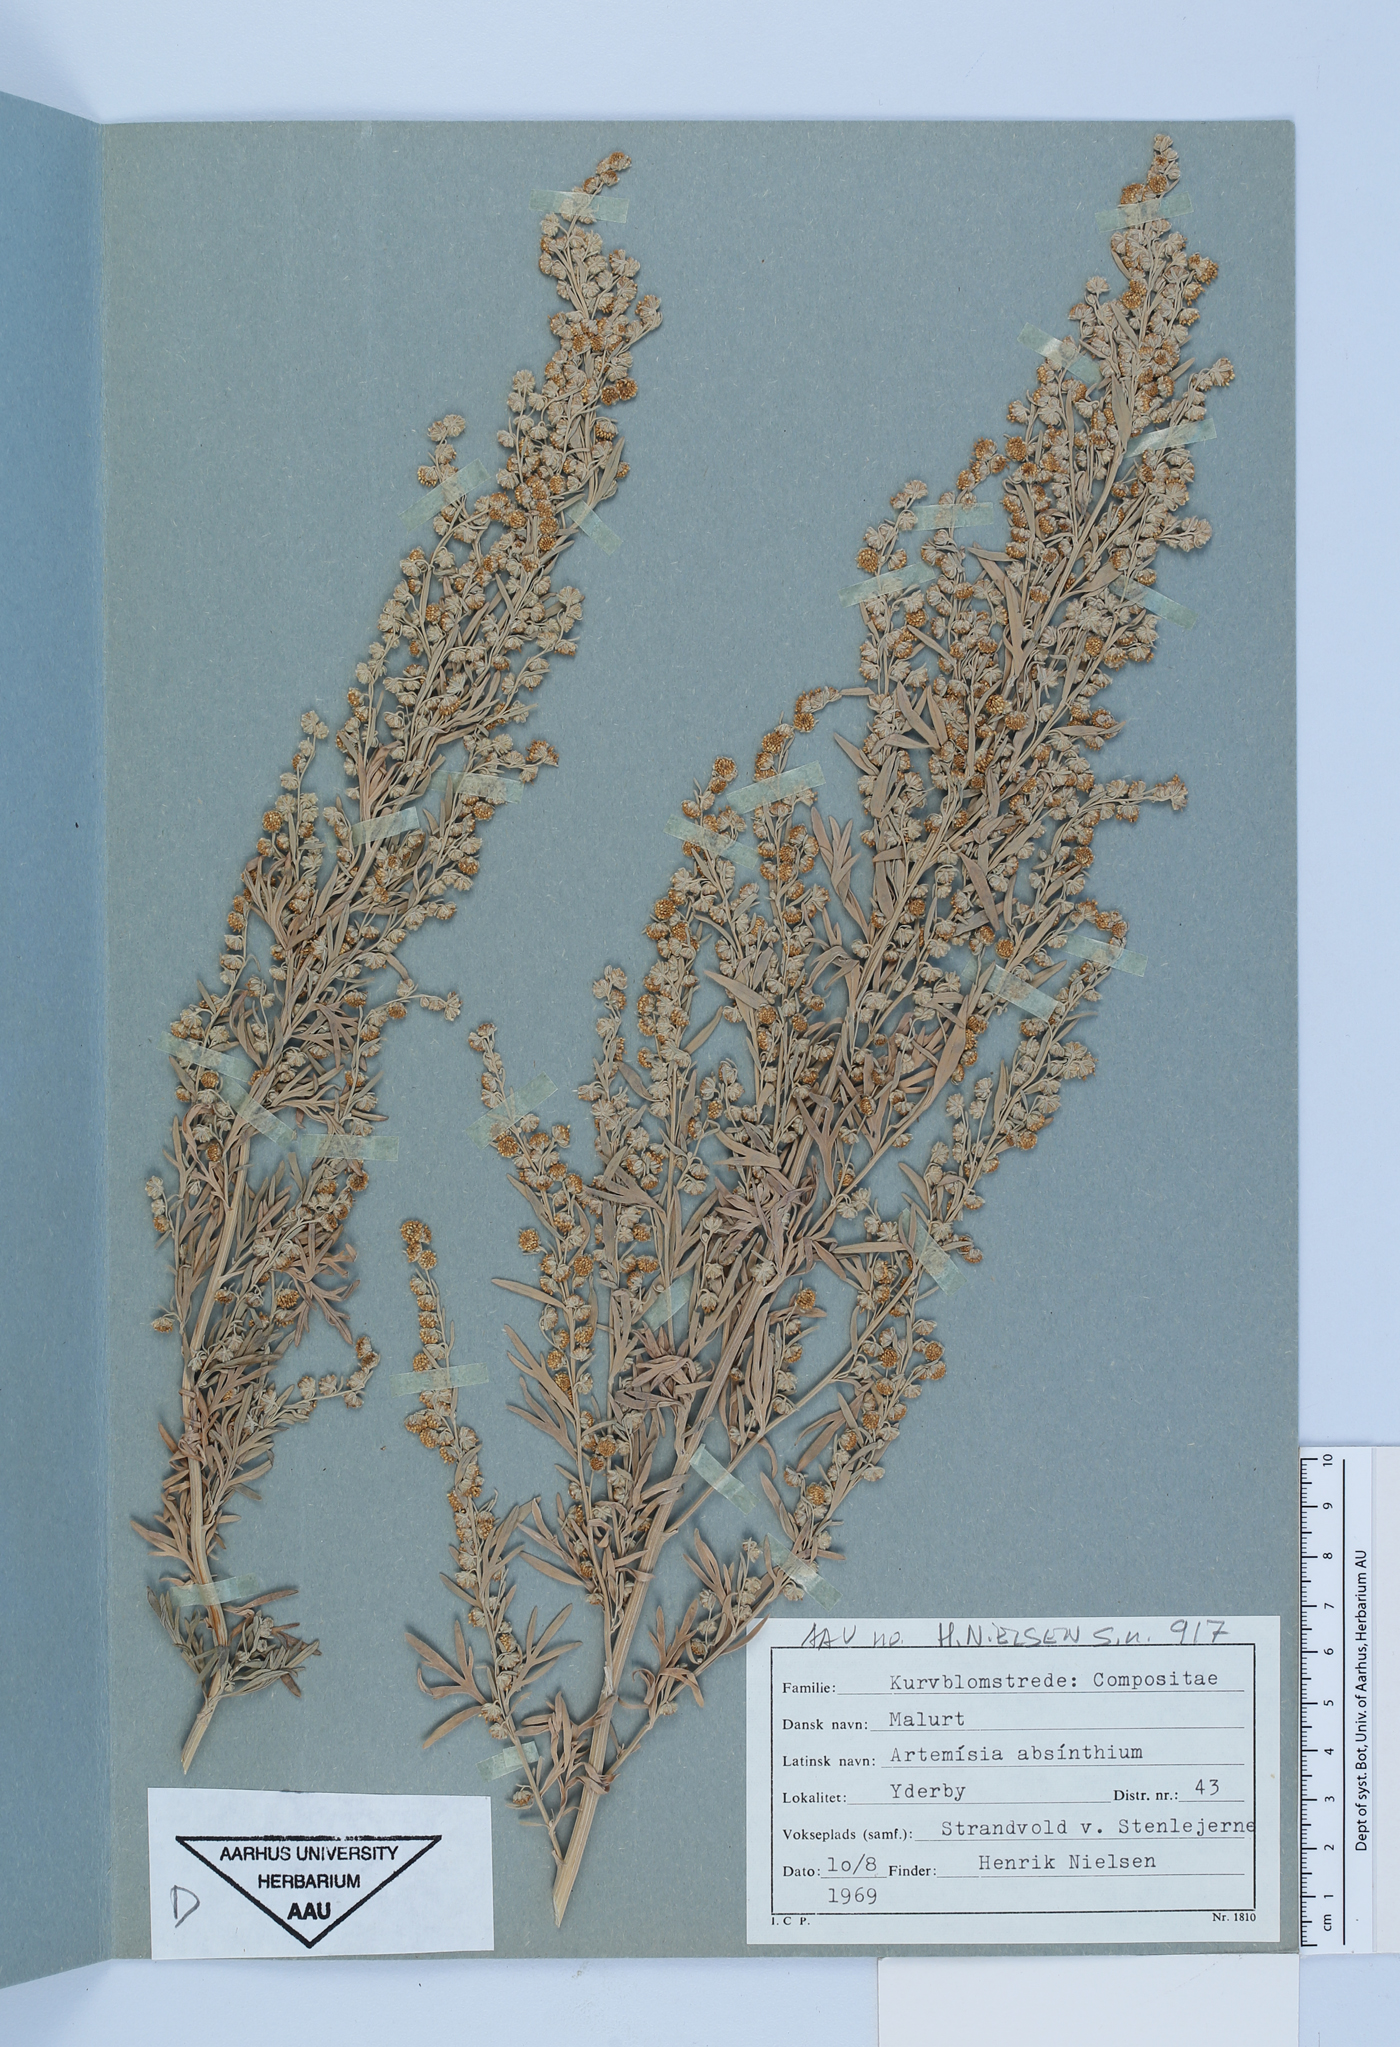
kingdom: Plantae
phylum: Tracheophyta
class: Magnoliopsida
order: Asterales
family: Asteraceae
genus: Artemisia
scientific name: Artemisia absinthium
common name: Wormwood
